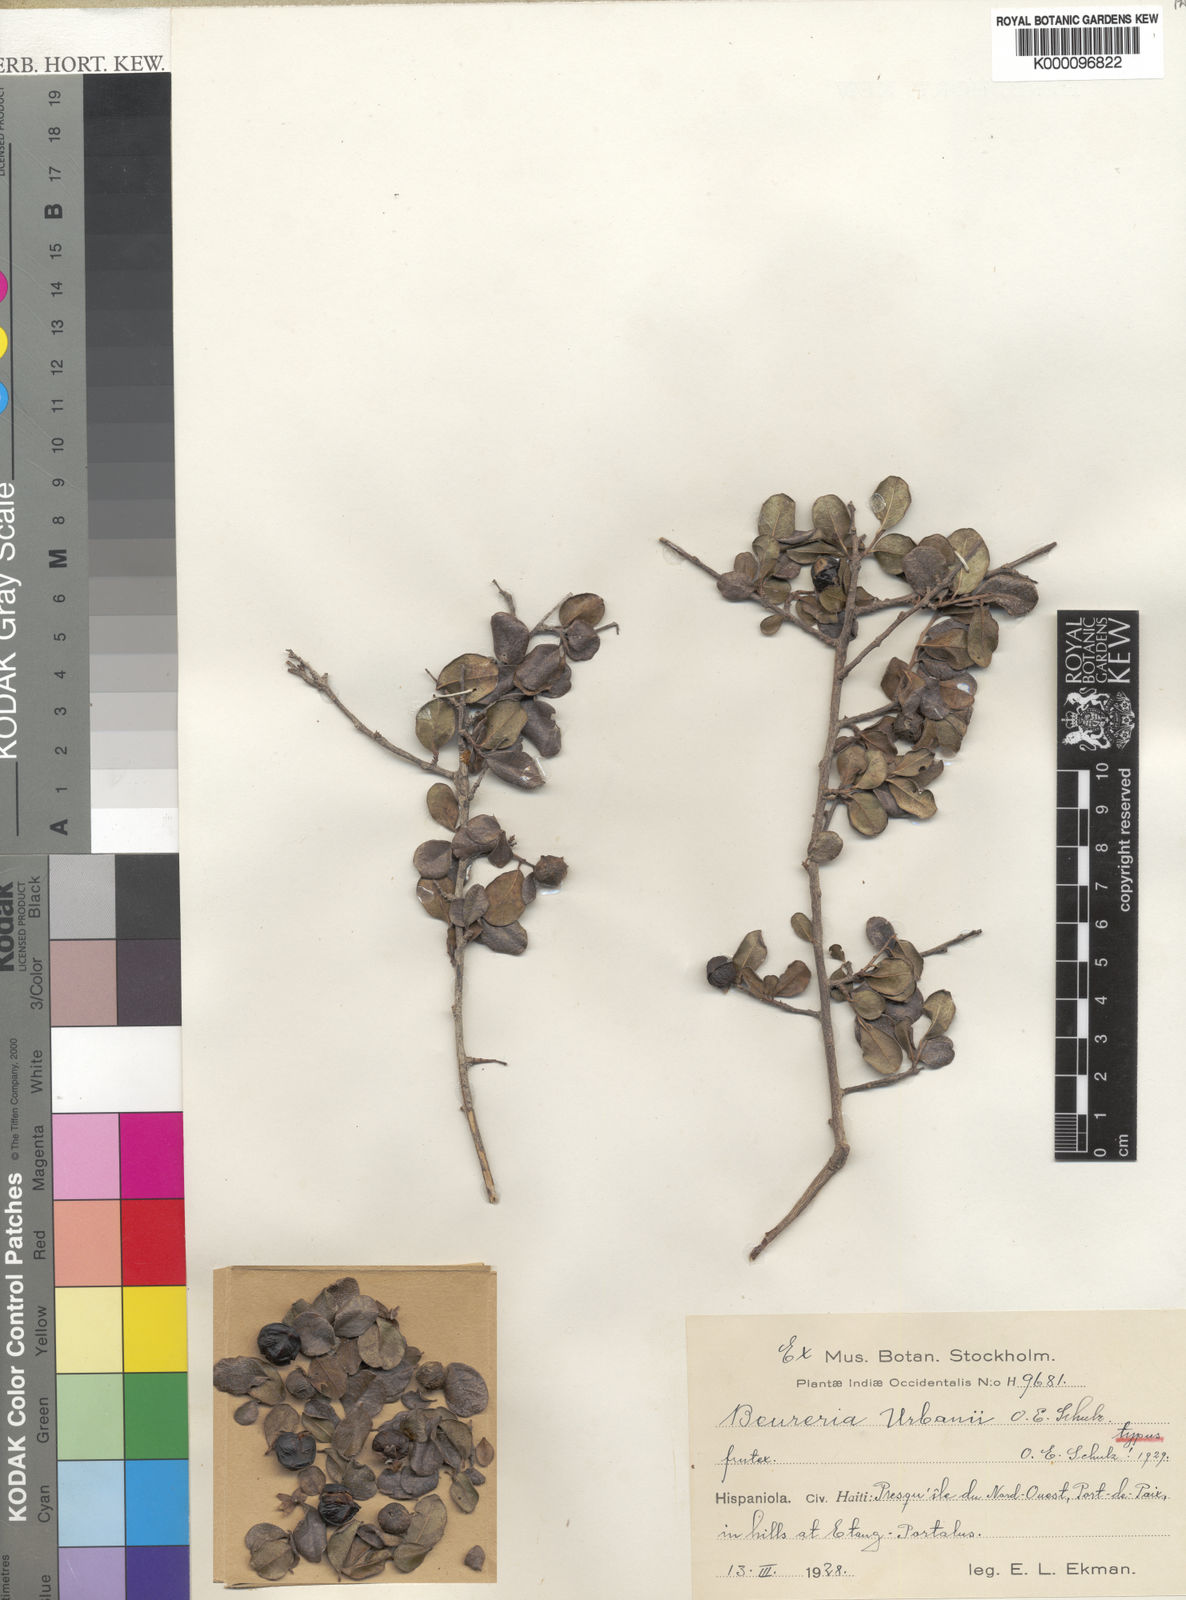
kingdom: Plantae
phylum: Tracheophyta
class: Magnoliopsida
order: Boraginales
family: Ehretiaceae
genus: Bourreria
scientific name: Bourreria havanensis
